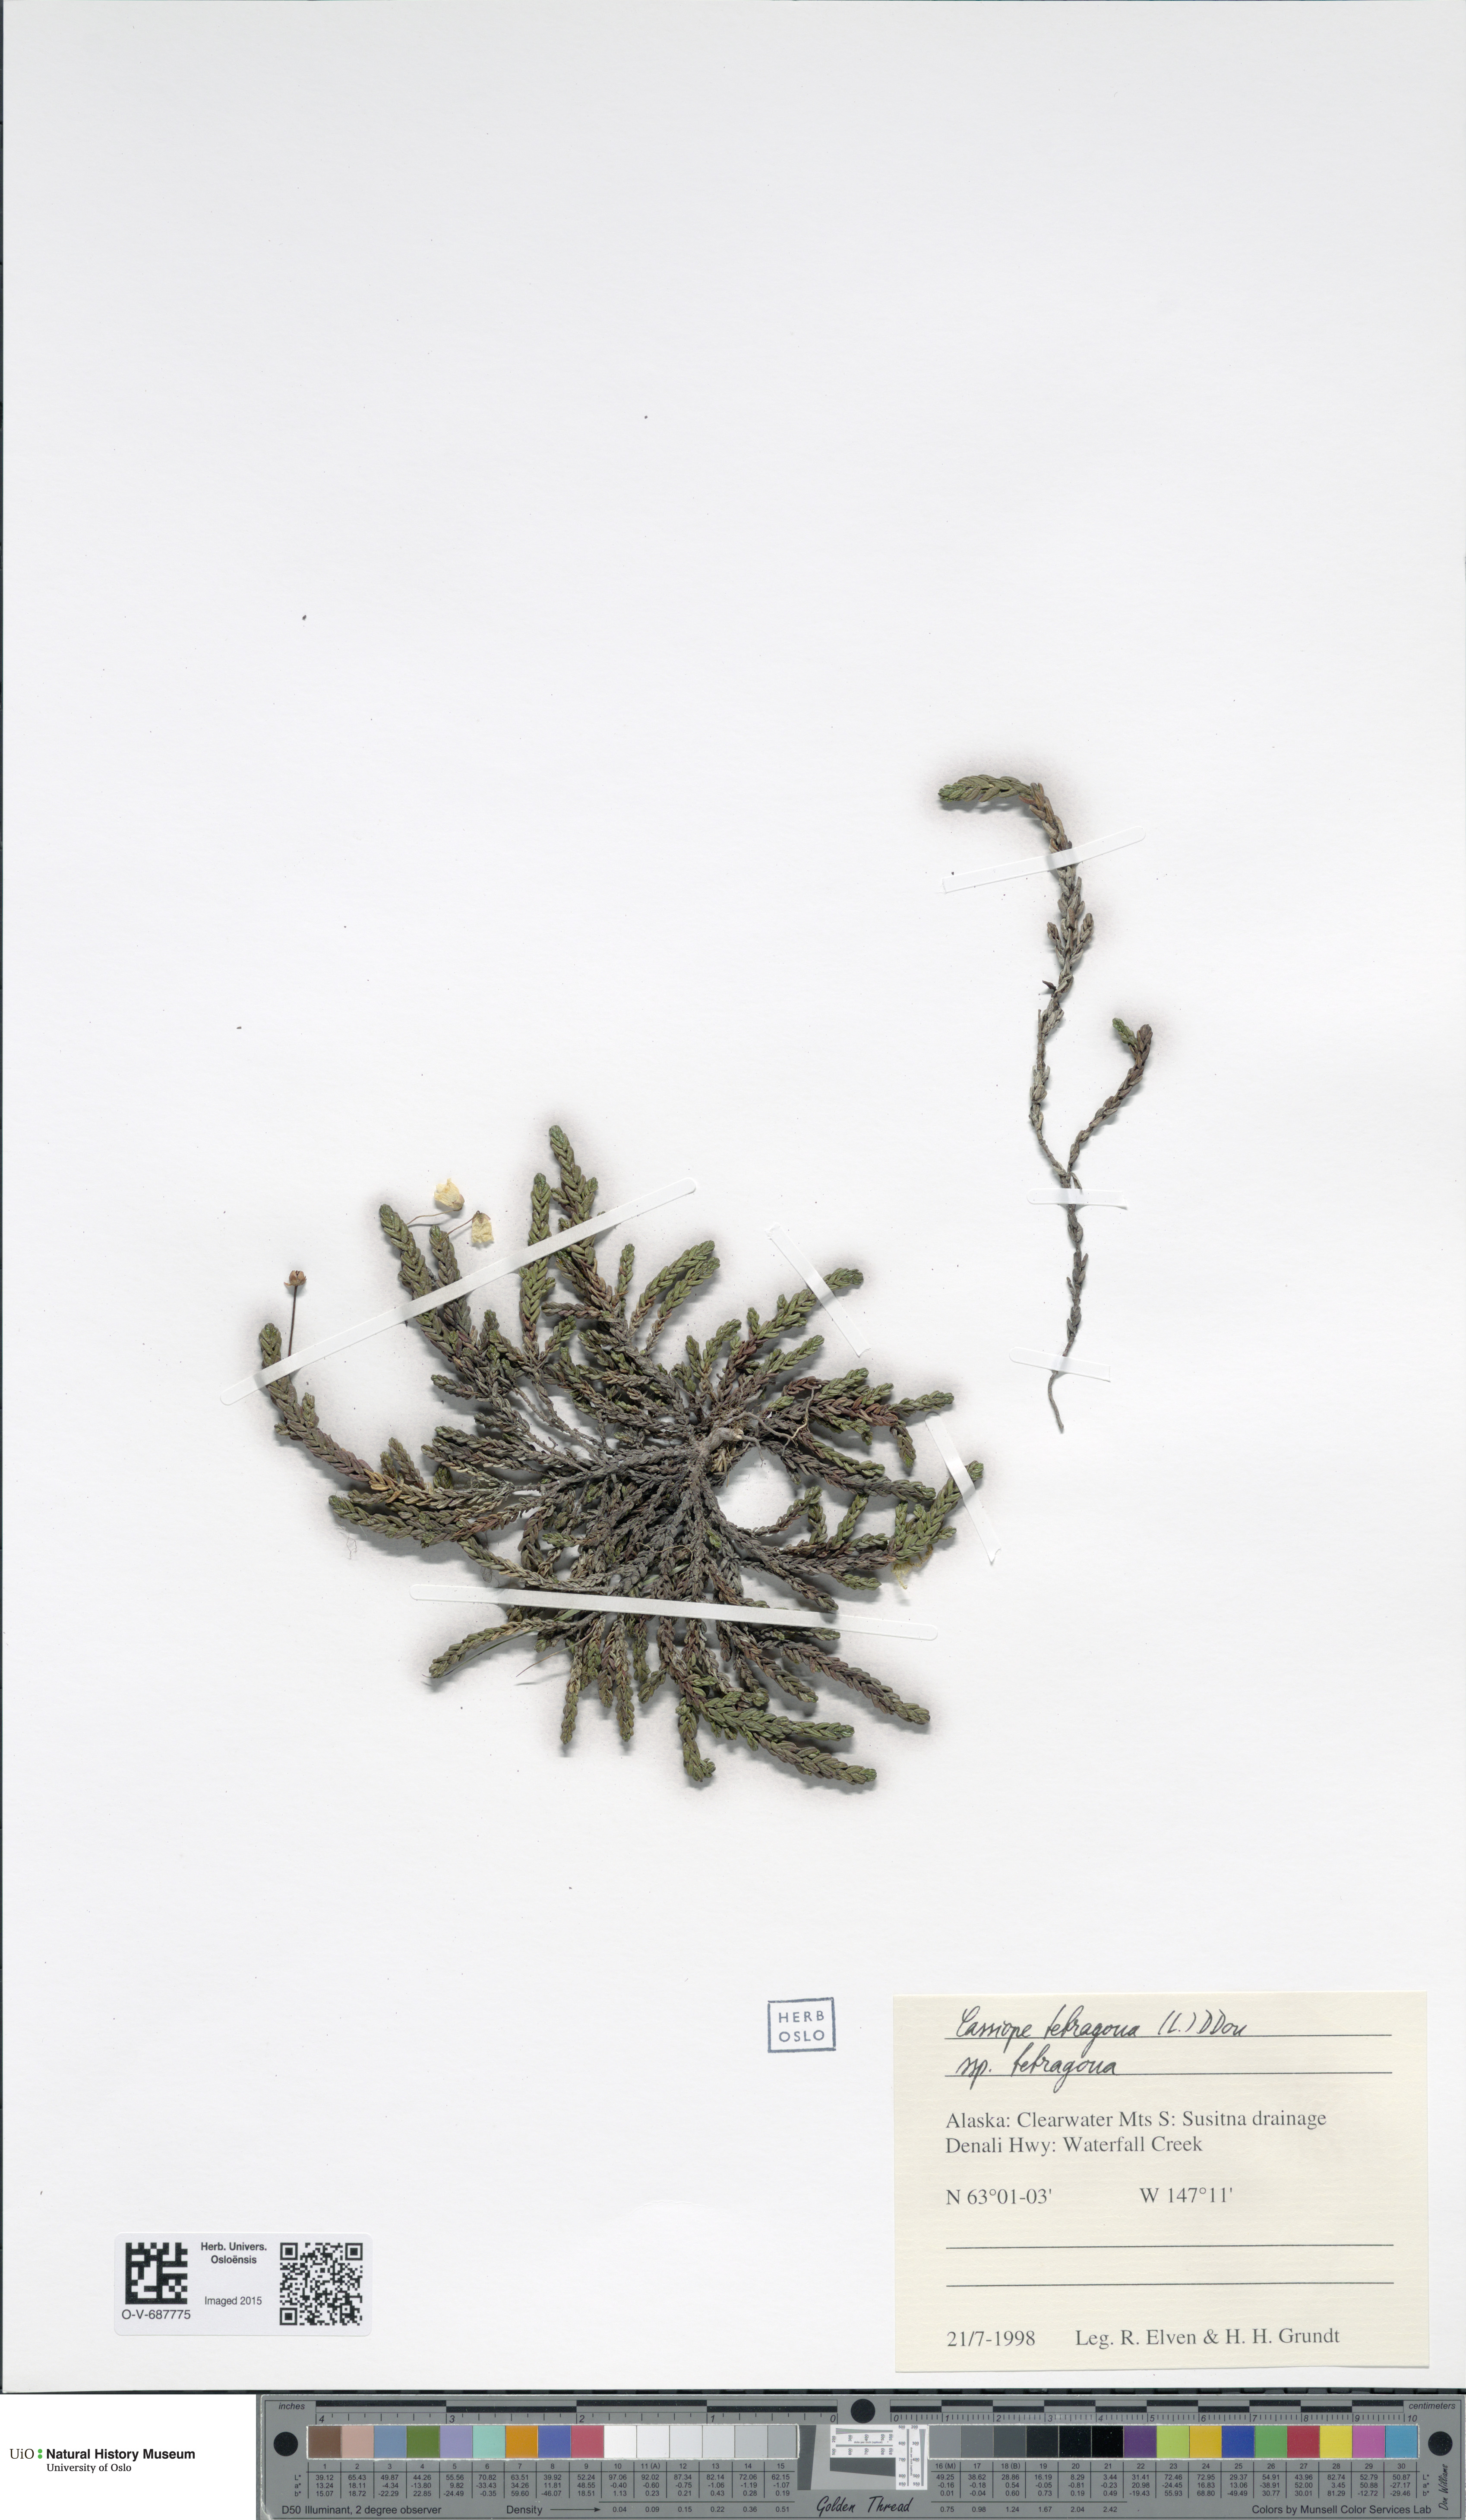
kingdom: Plantae
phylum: Tracheophyta
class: Magnoliopsida
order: Ericales
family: Ericaceae
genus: Cassiope
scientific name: Cassiope tetragona
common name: Arctic bell heather
